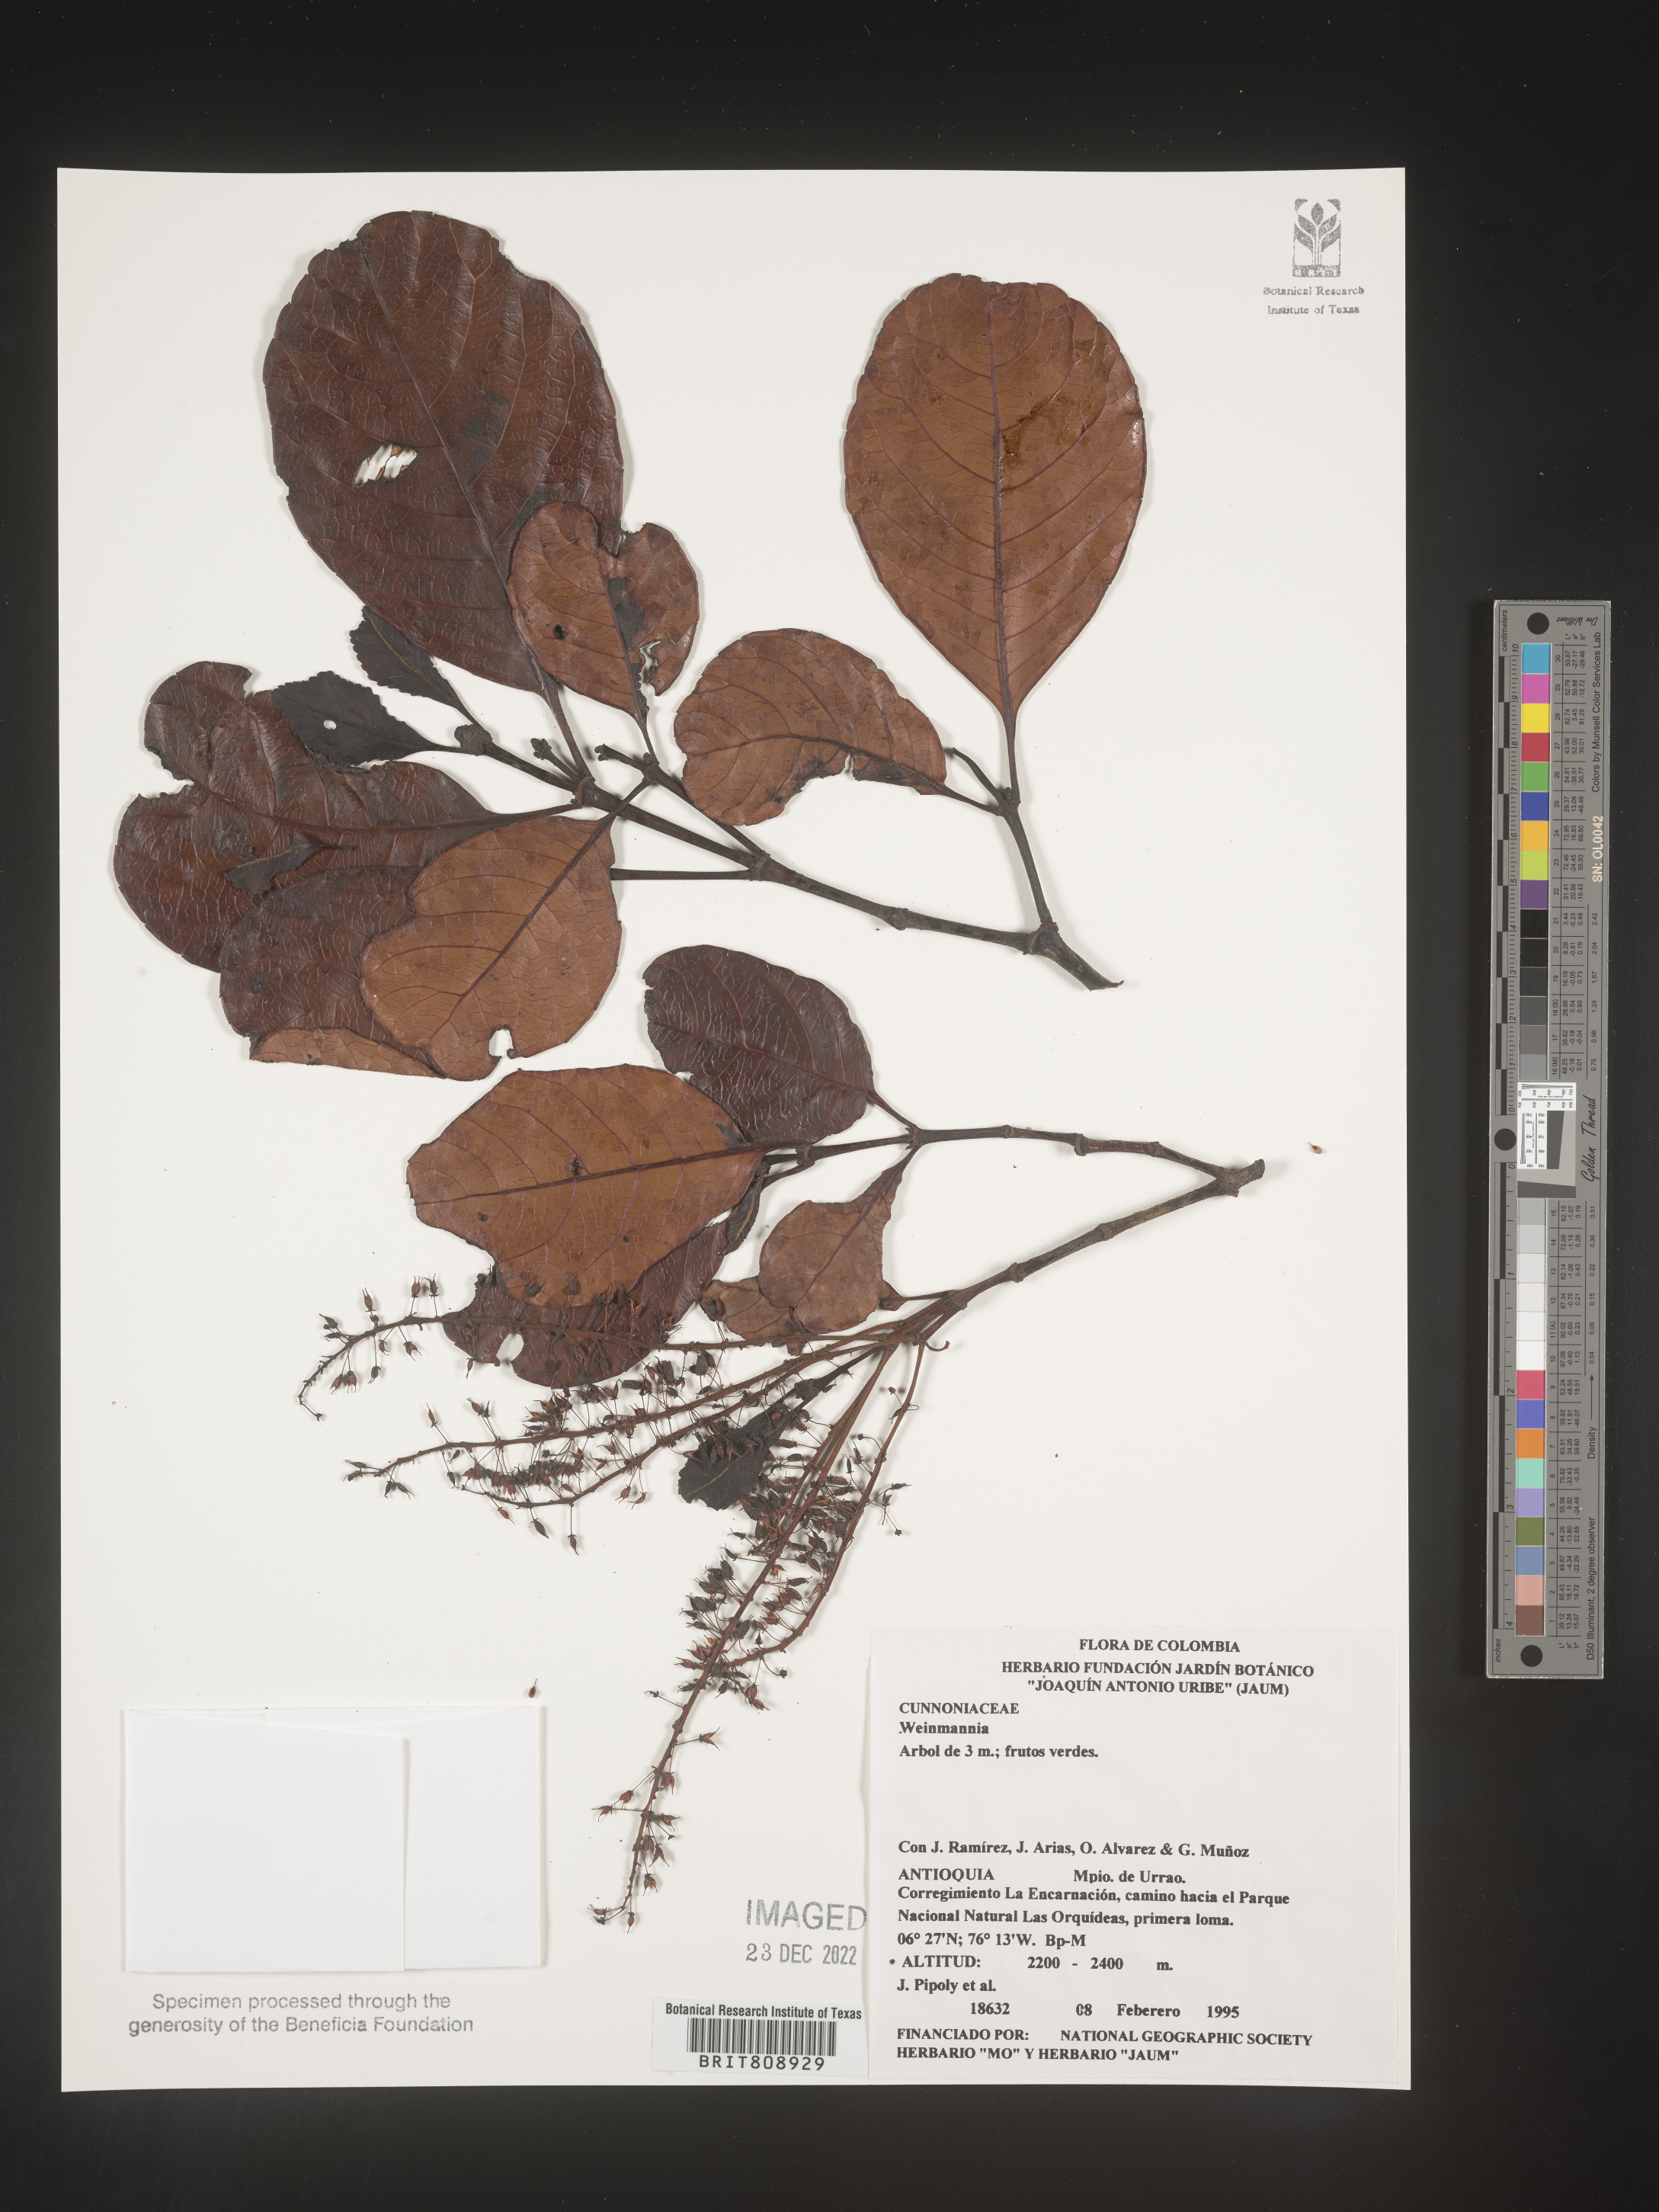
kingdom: Plantae
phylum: Tracheophyta
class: Magnoliopsida
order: Oxalidales
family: Cunoniaceae
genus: Weinmannia
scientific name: Weinmannia
